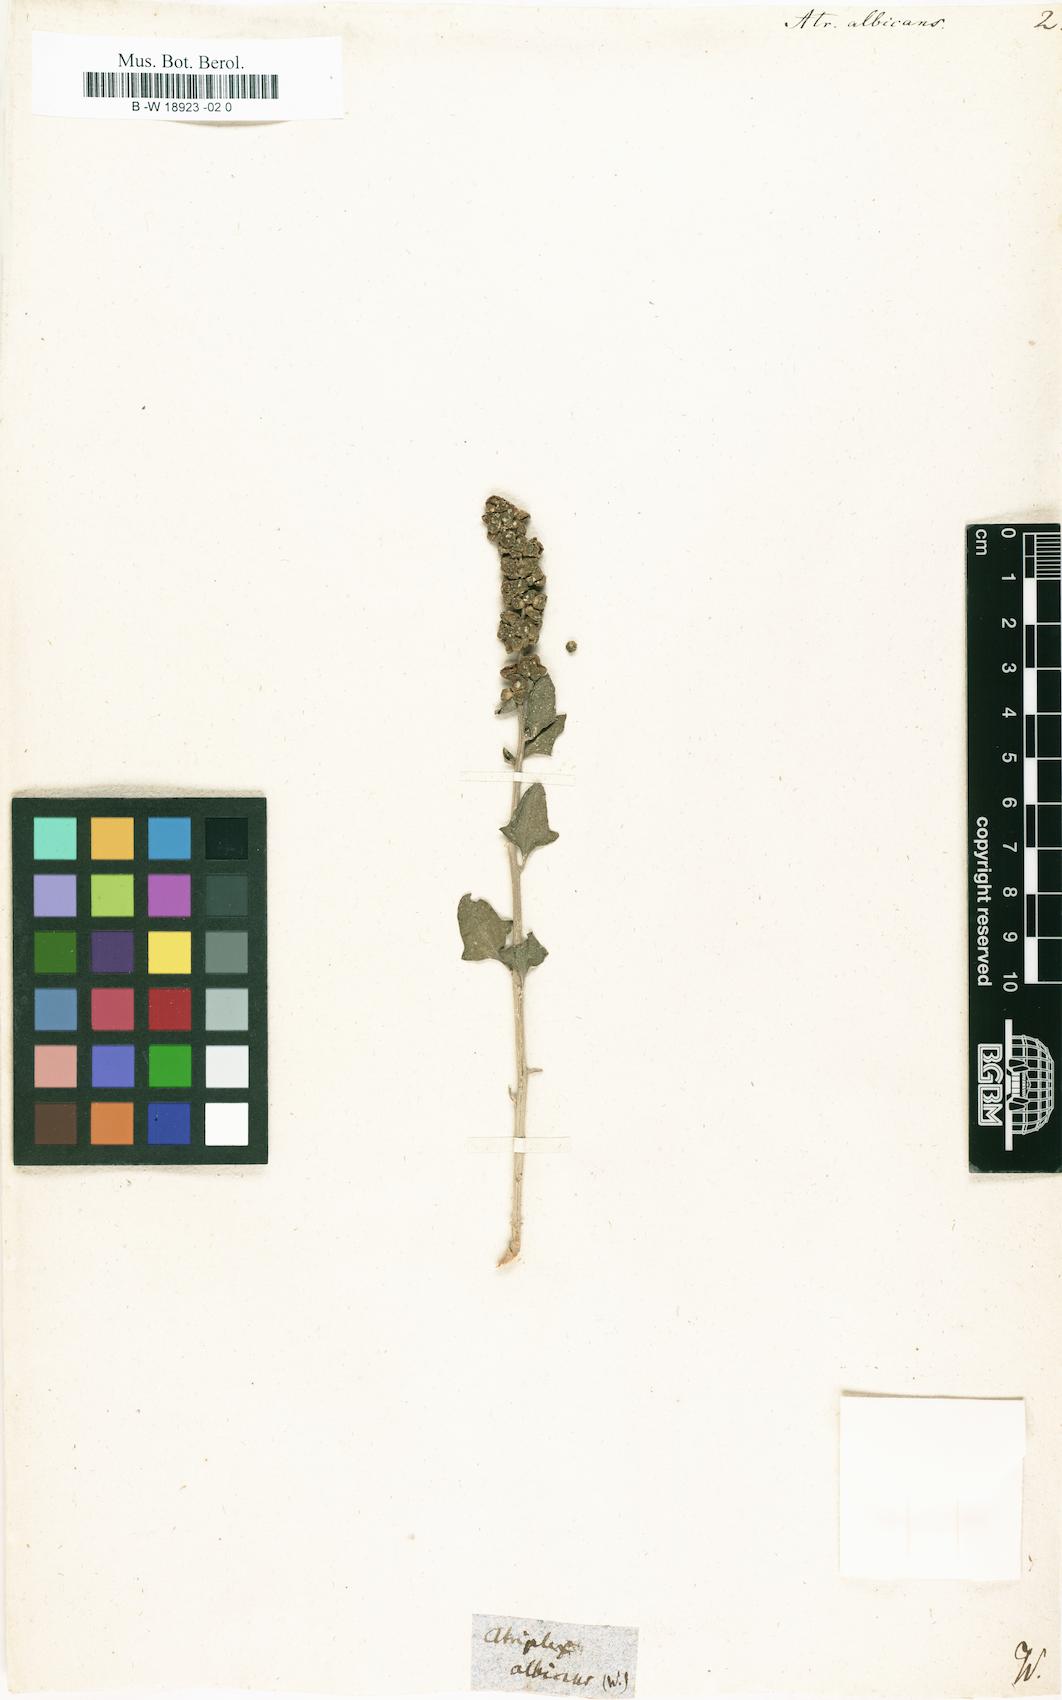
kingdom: Plantae
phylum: Tracheophyta
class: Magnoliopsida
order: Caryophyllales
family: Amaranthaceae
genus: Atriplex
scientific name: Atriplex laciniata
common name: Frosted orache
